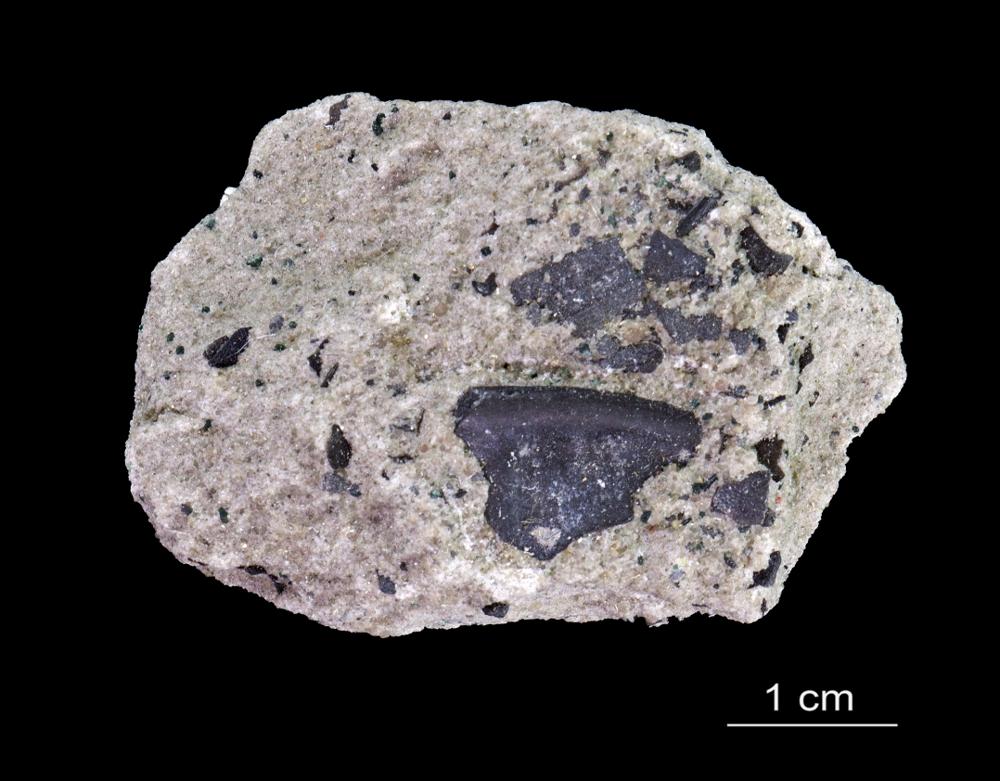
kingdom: Animalia
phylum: Arthropoda
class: Trilobita
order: Redlichiida
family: Holmiidae
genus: Schmidtiellus
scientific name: Schmidtiellus Olenellus mickwitzi
